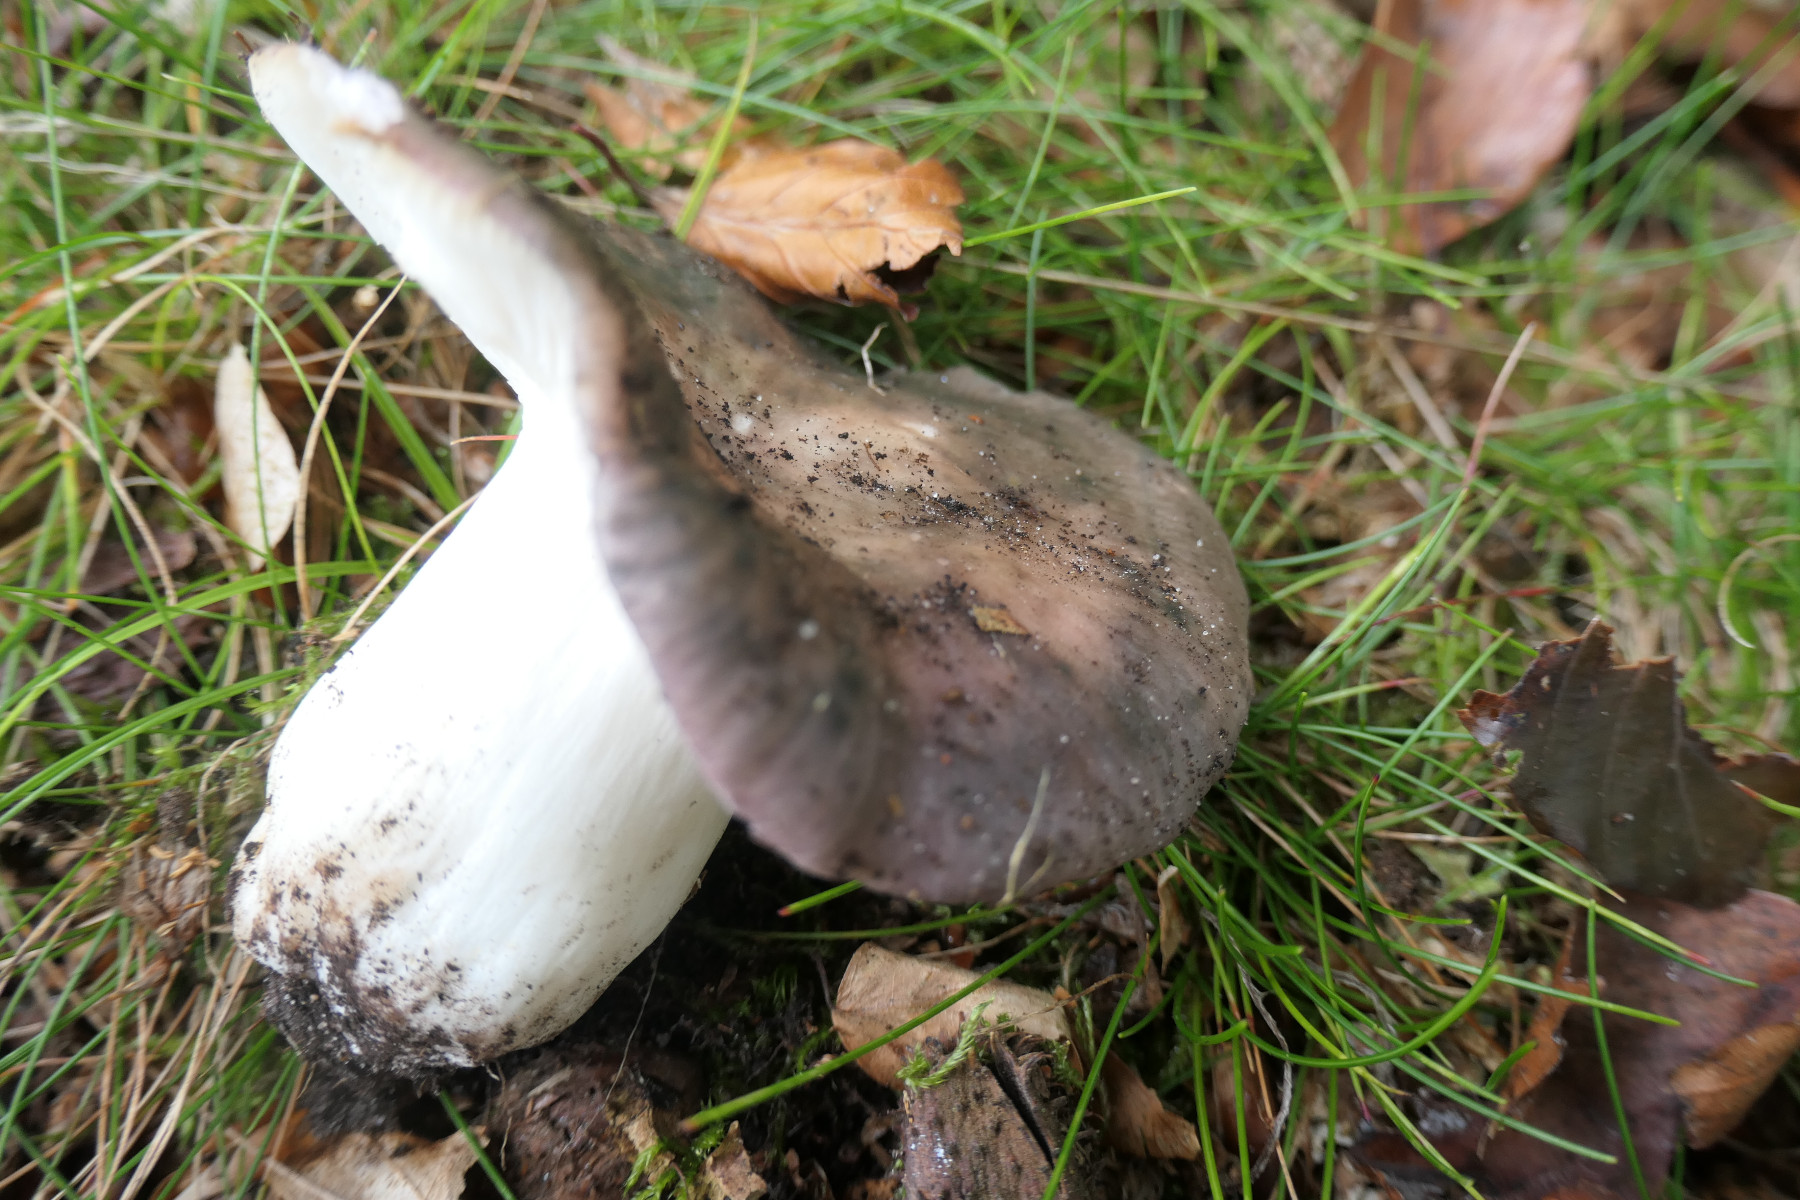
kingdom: Fungi
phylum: Basidiomycota
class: Agaricomycetes
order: Russulales
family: Russulaceae
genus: Russula
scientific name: Russula cyanoxantha
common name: broget skørhat
